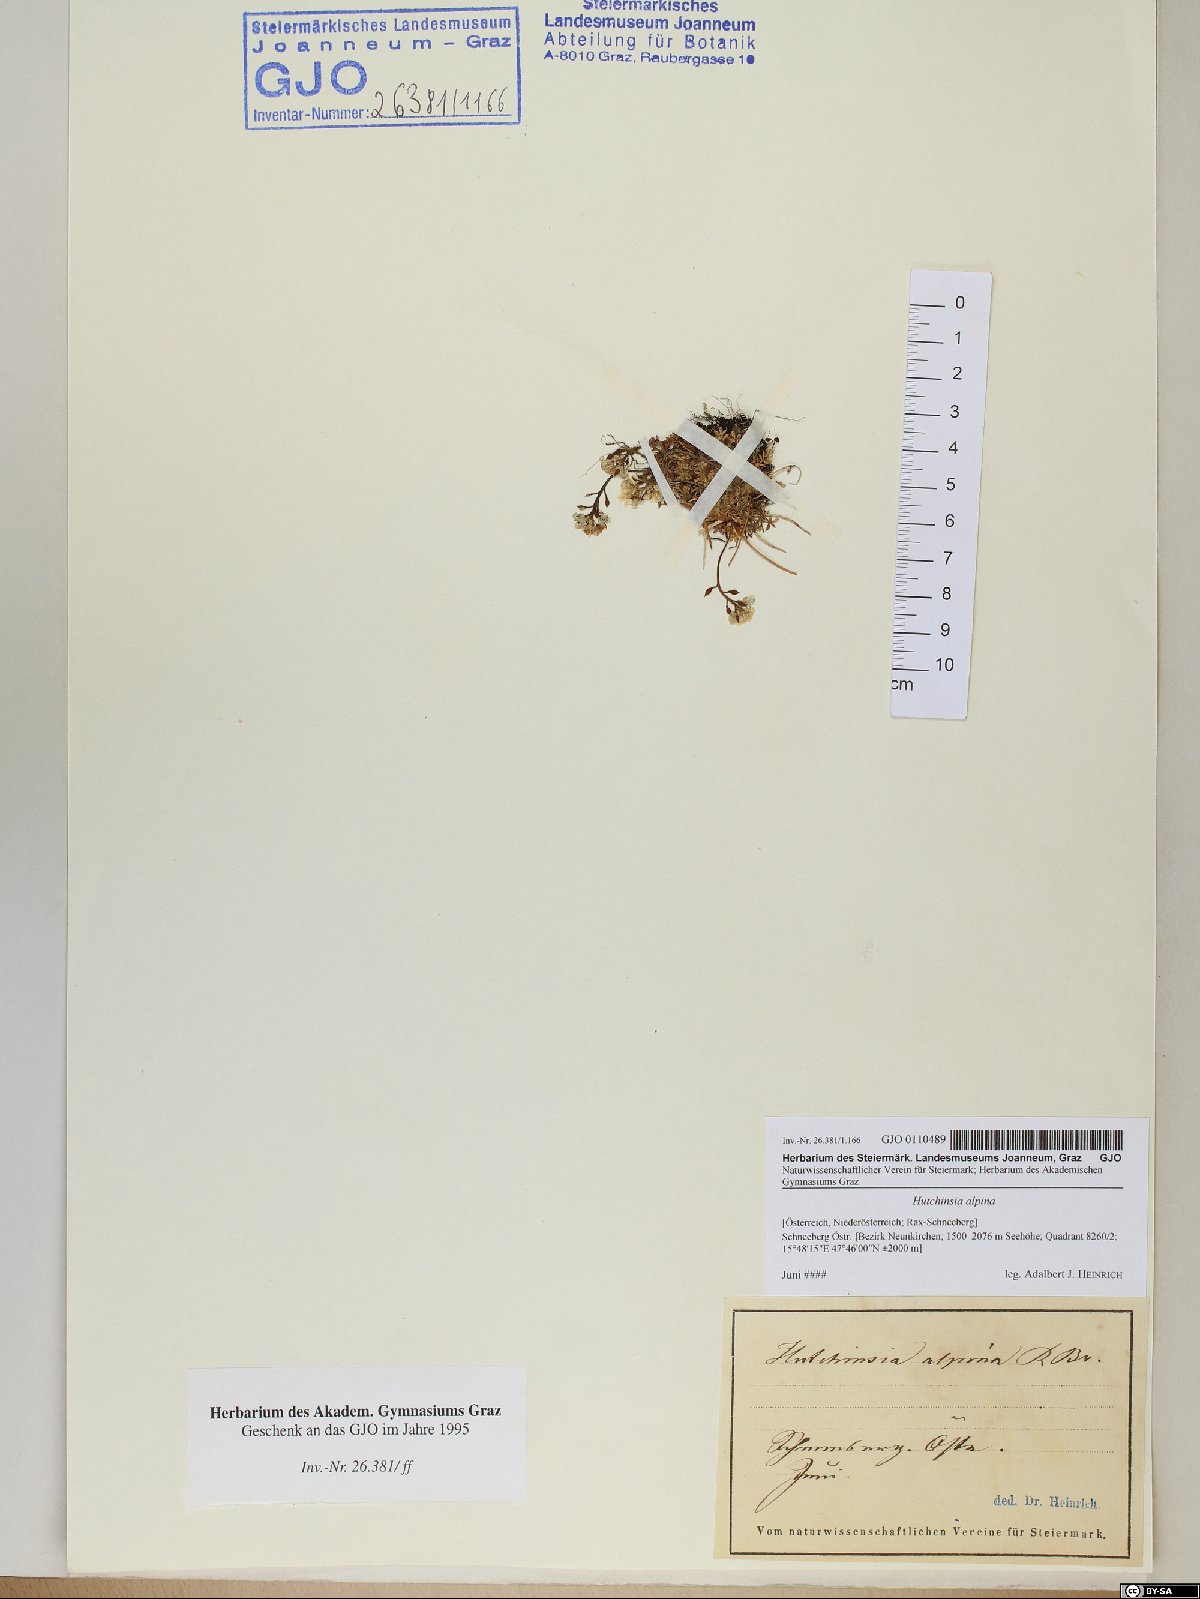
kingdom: Plantae
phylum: Tracheophyta
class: Magnoliopsida
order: Brassicales
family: Brassicaceae
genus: Hornungia
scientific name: Hornungia alpina
